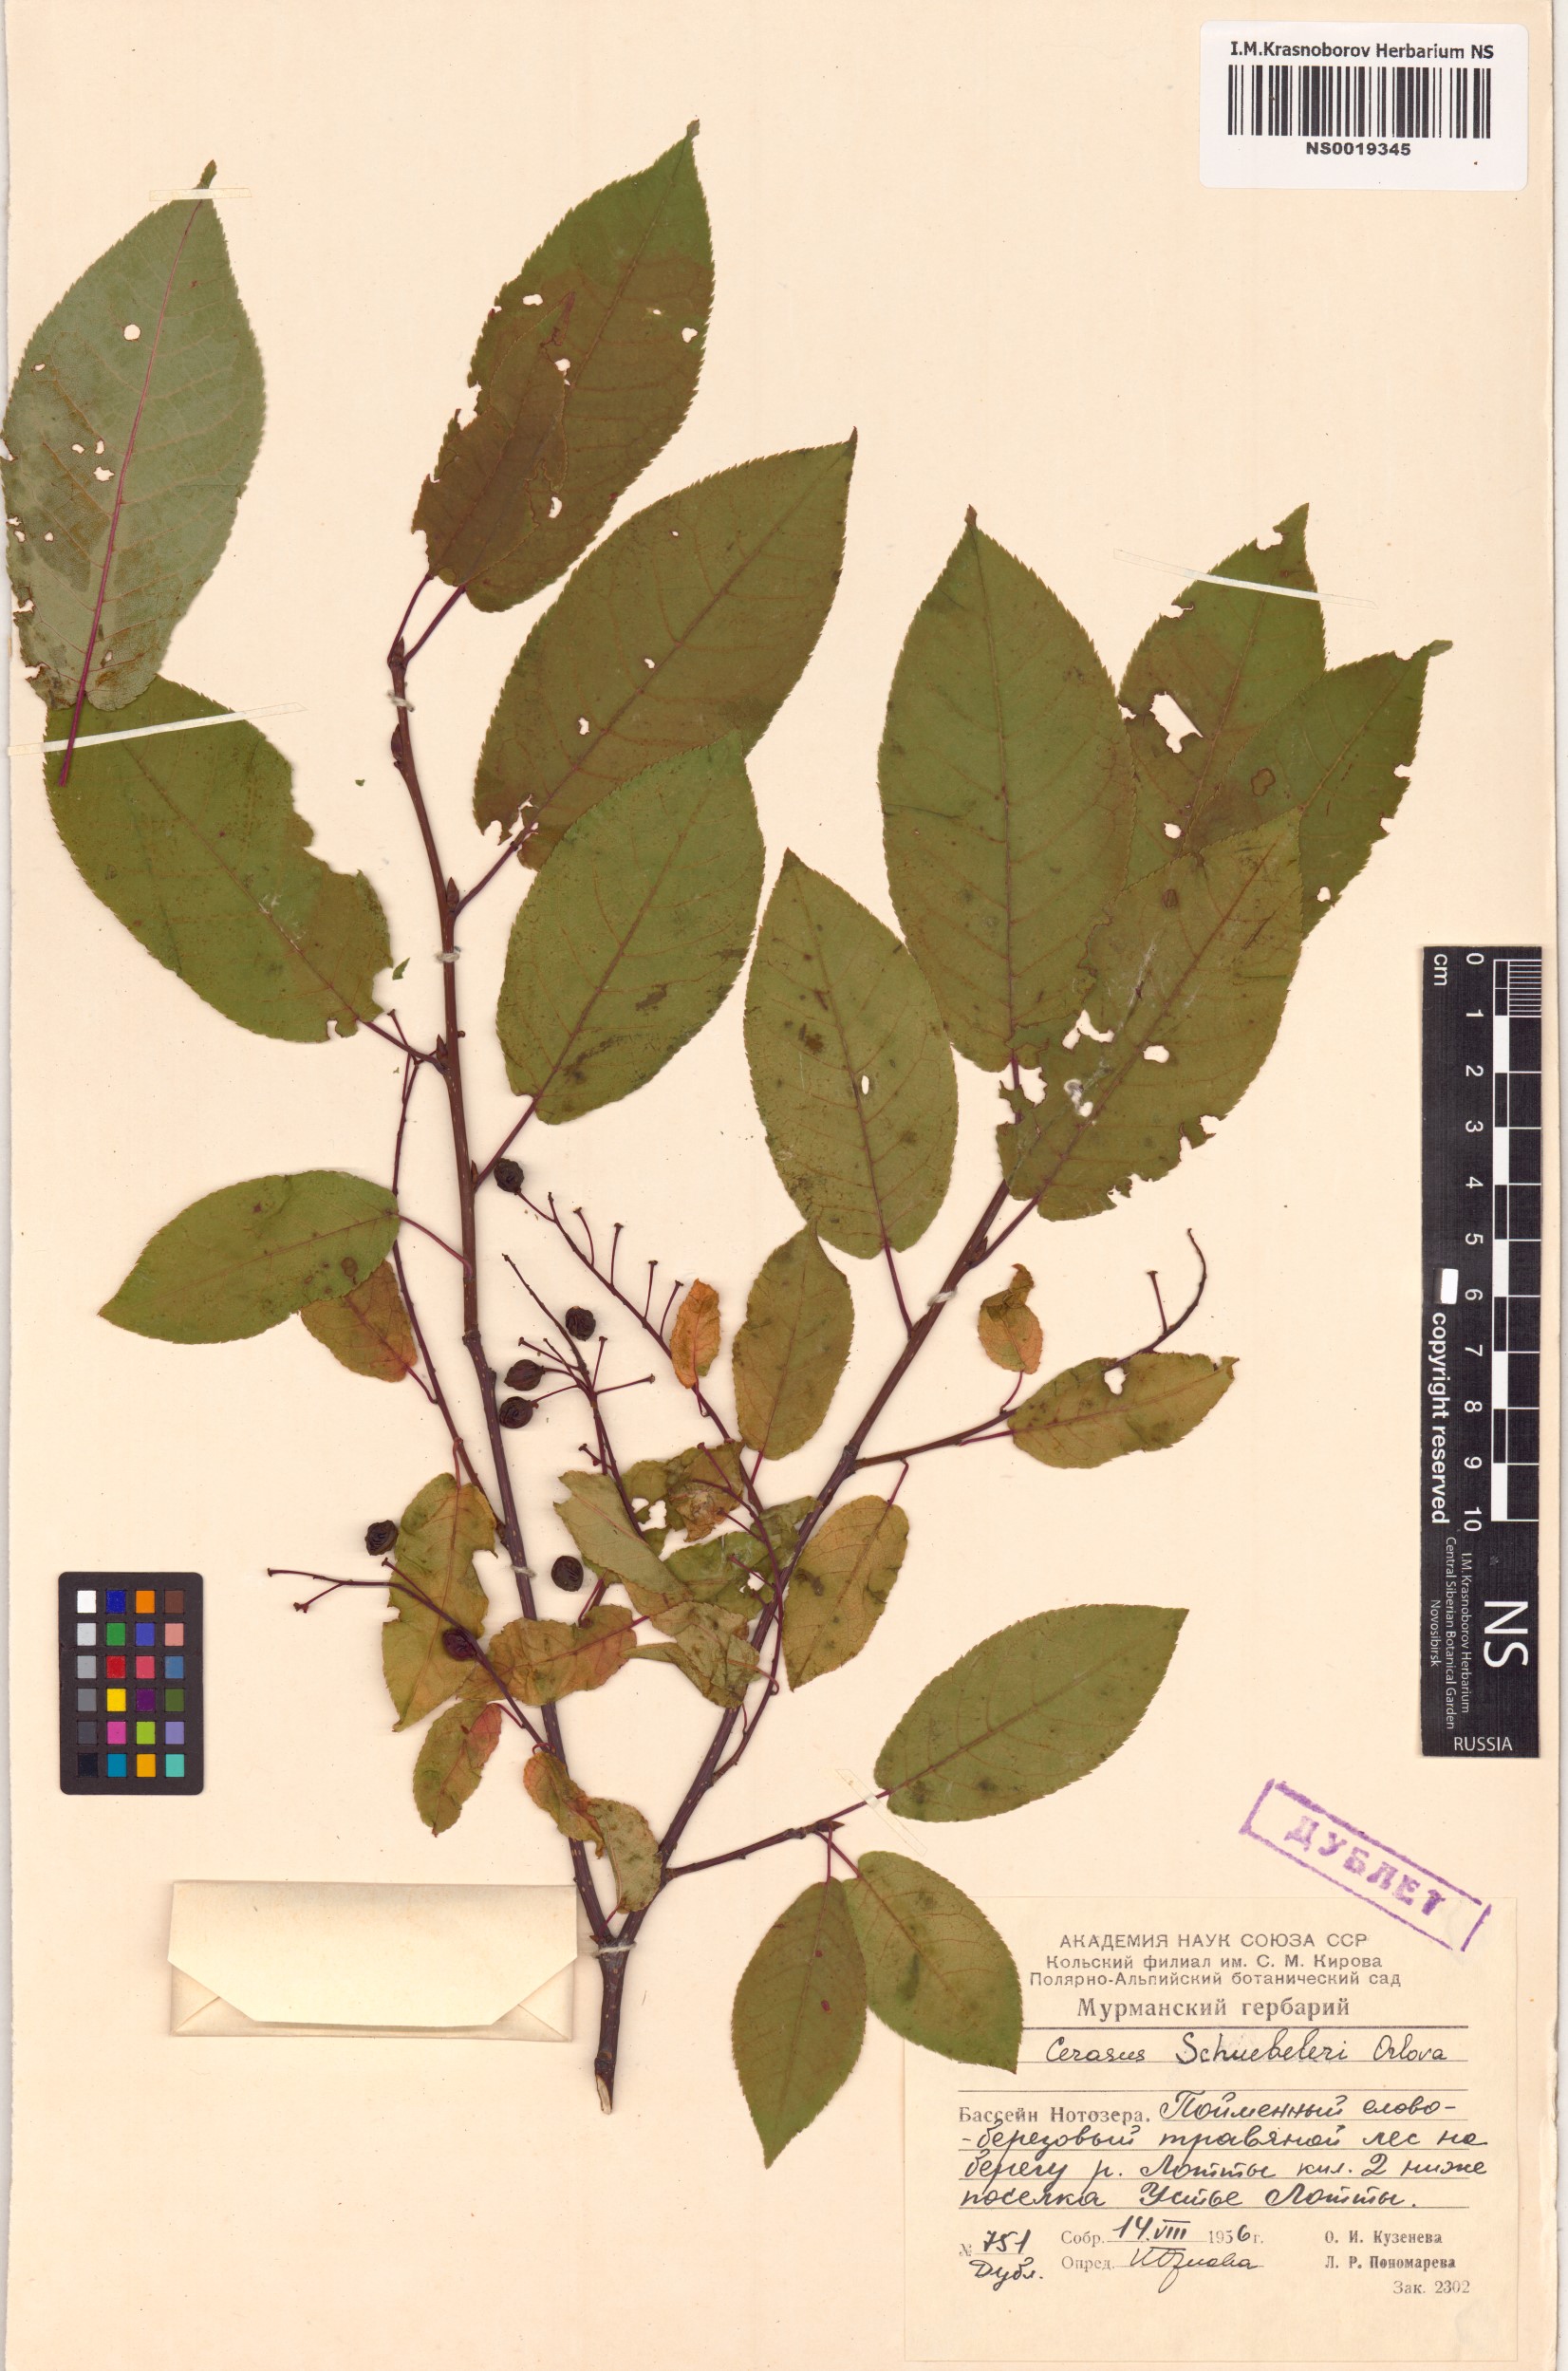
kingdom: Plantae
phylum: Tracheophyta
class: Magnoliopsida
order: Rosales
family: Rosaceae
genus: Prunus
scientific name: Prunus padus
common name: Bird cherry
